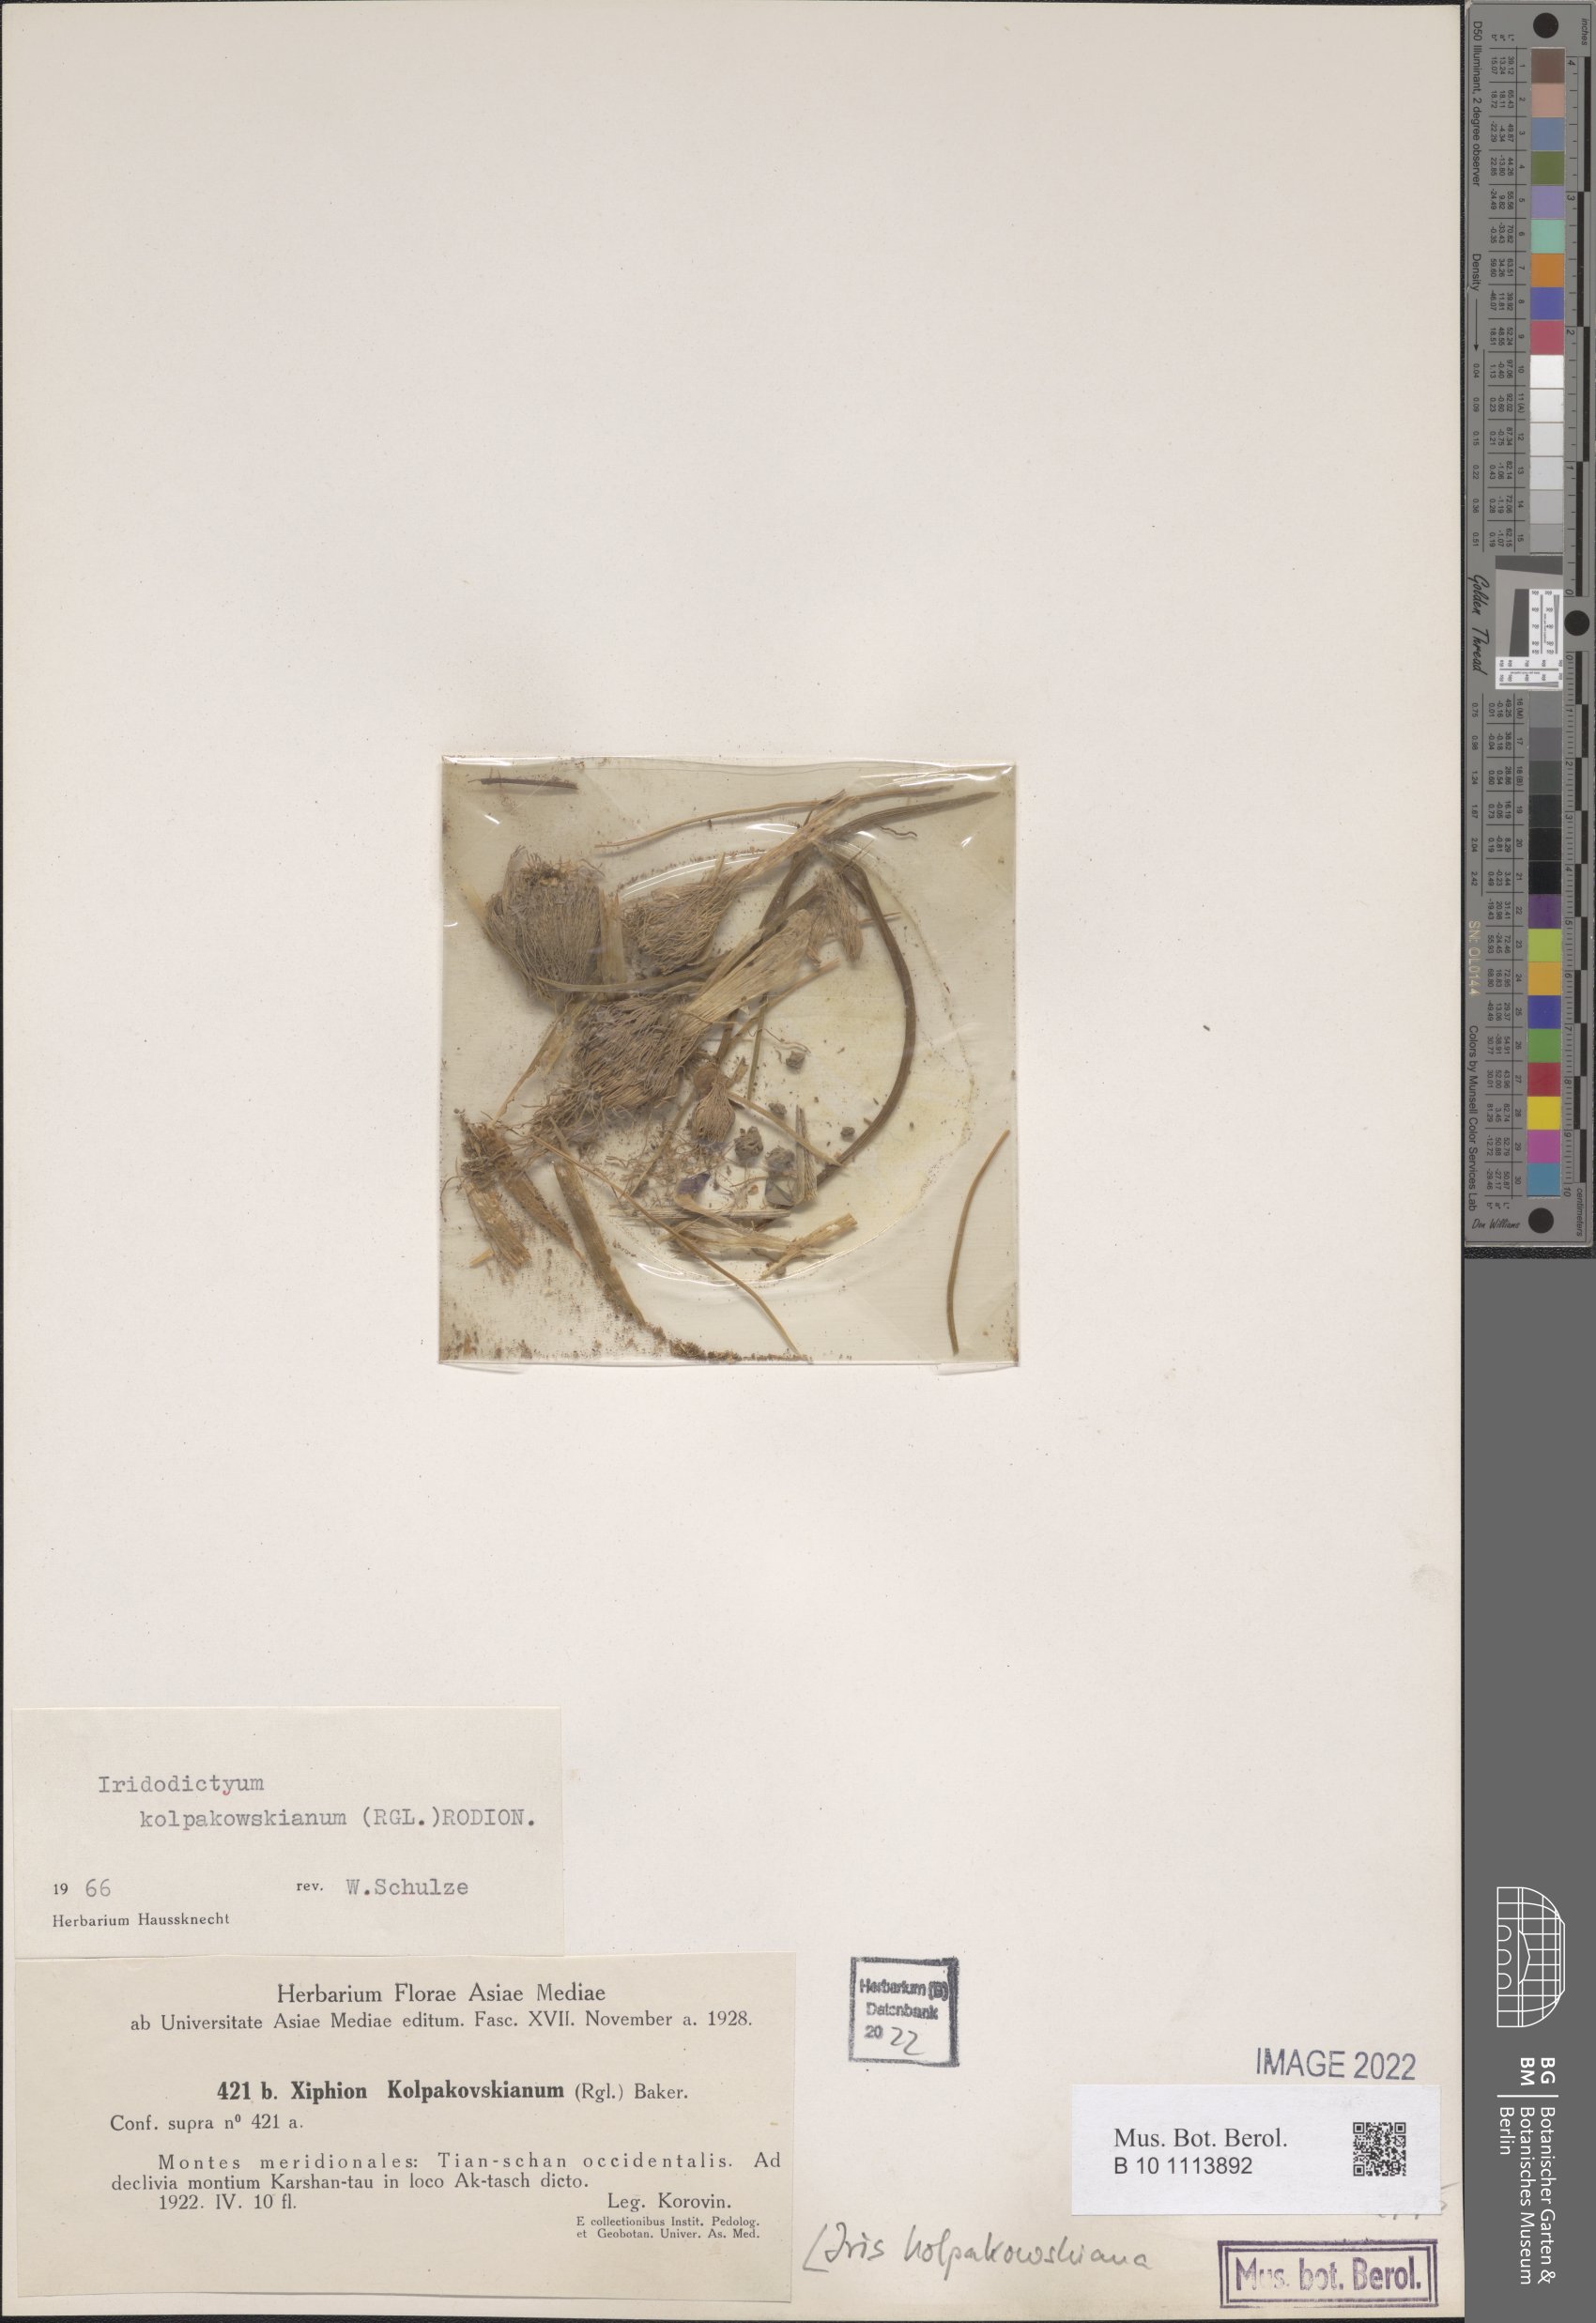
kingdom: Plantae
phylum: Tracheophyta
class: Liliopsida
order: Asparagales
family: Iridaceae
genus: Iris
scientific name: Iris kolpakowskiana
